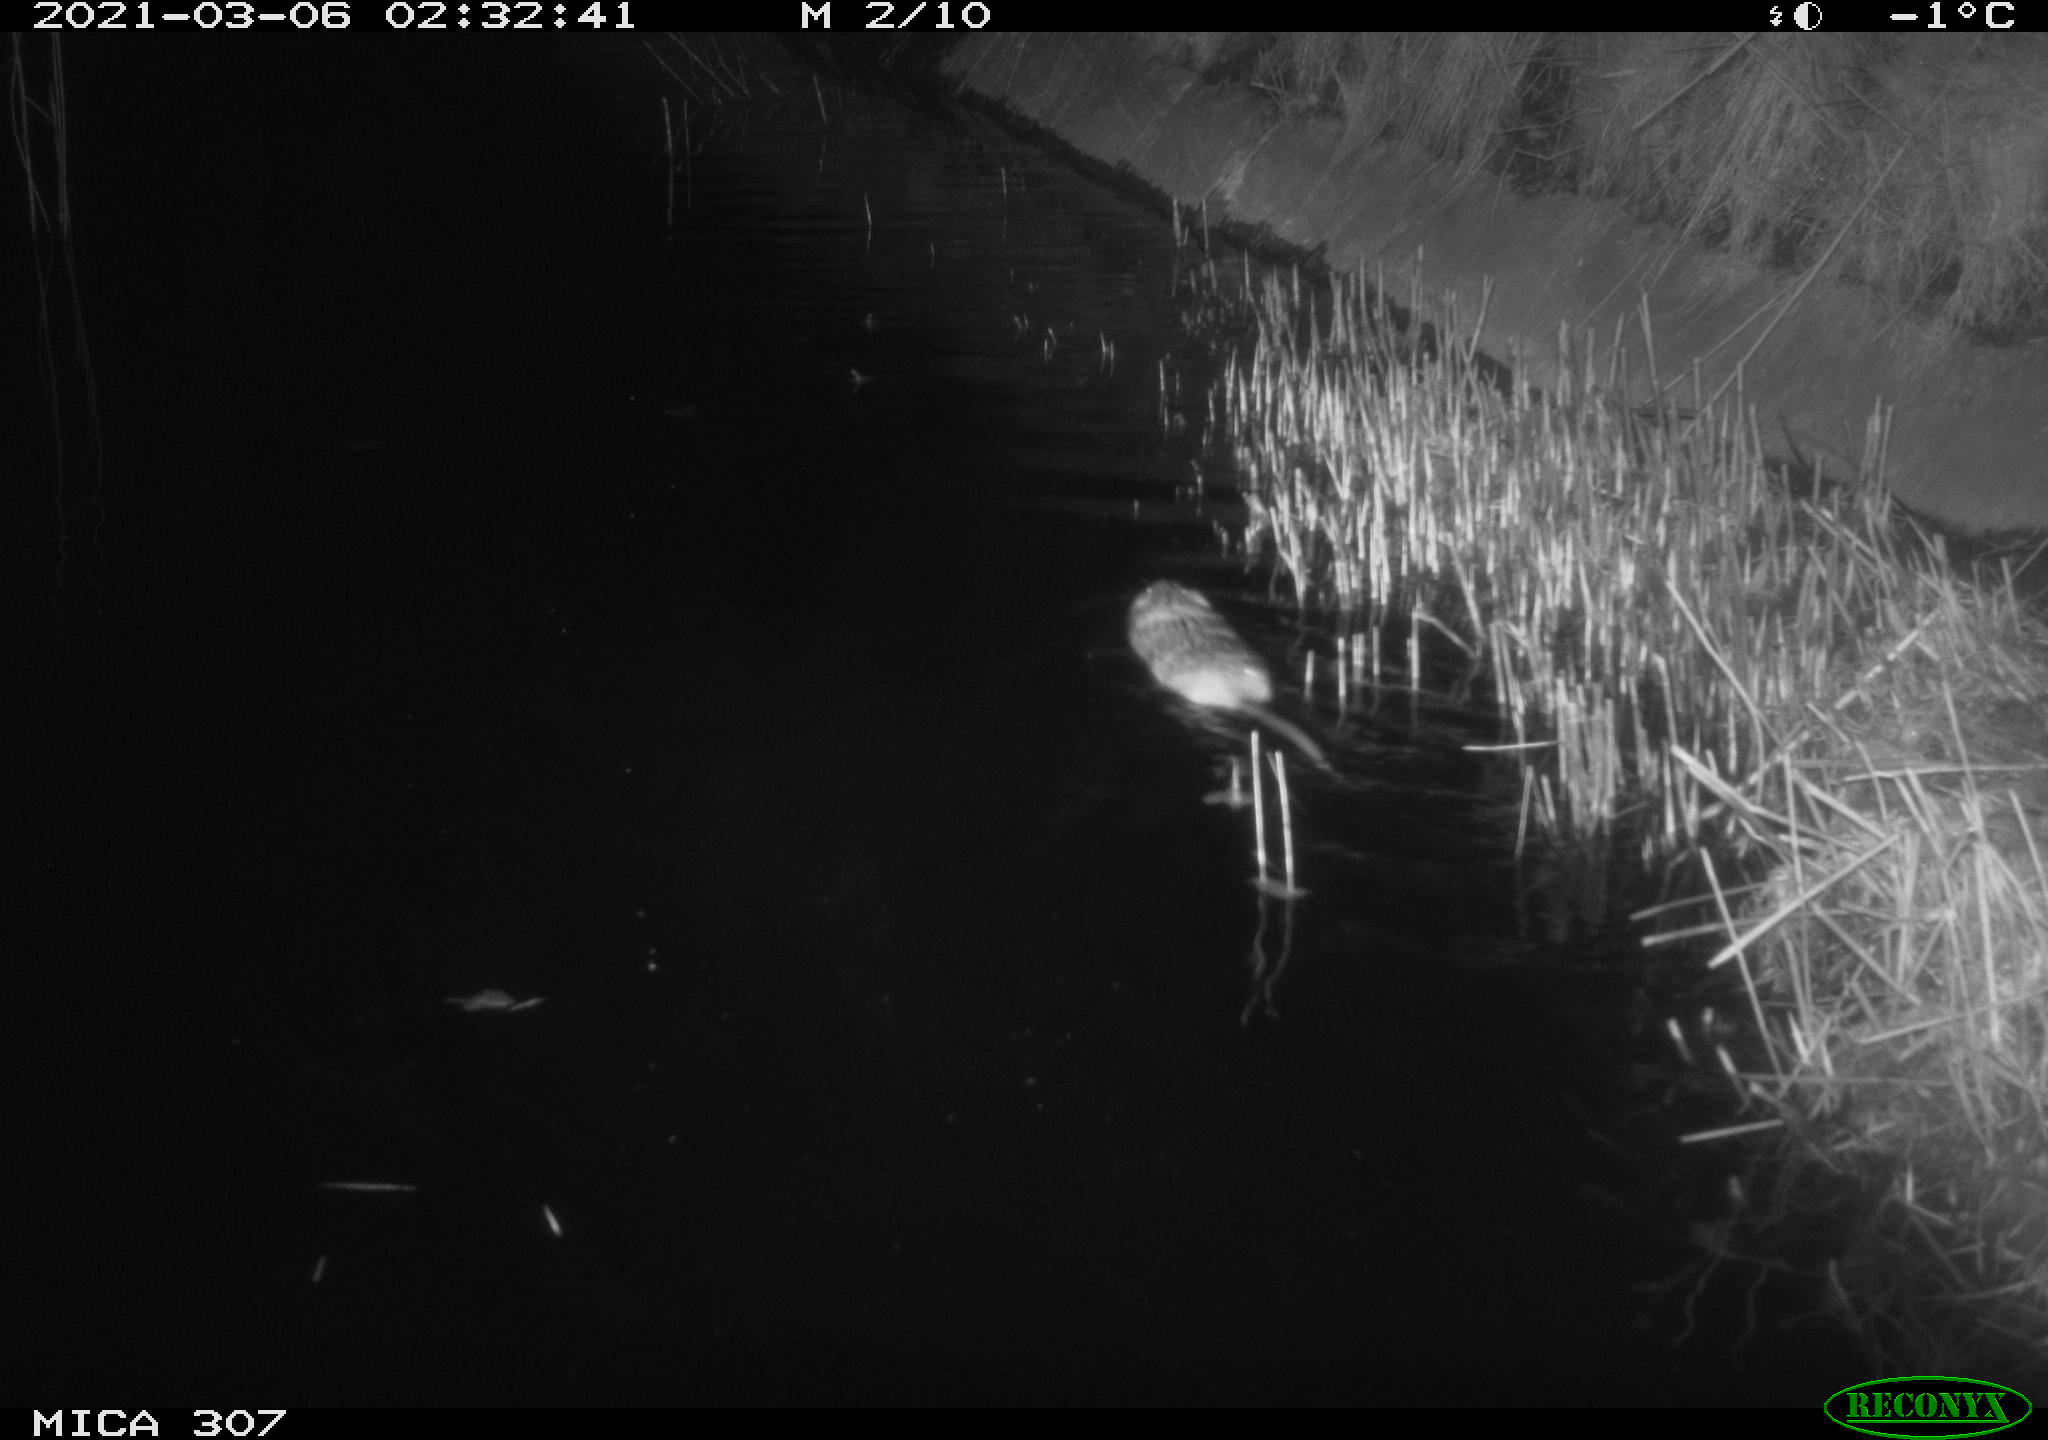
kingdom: Animalia
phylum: Chordata
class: Mammalia
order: Rodentia
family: Muridae
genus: Rattus
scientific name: Rattus norvegicus
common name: Brown rat
